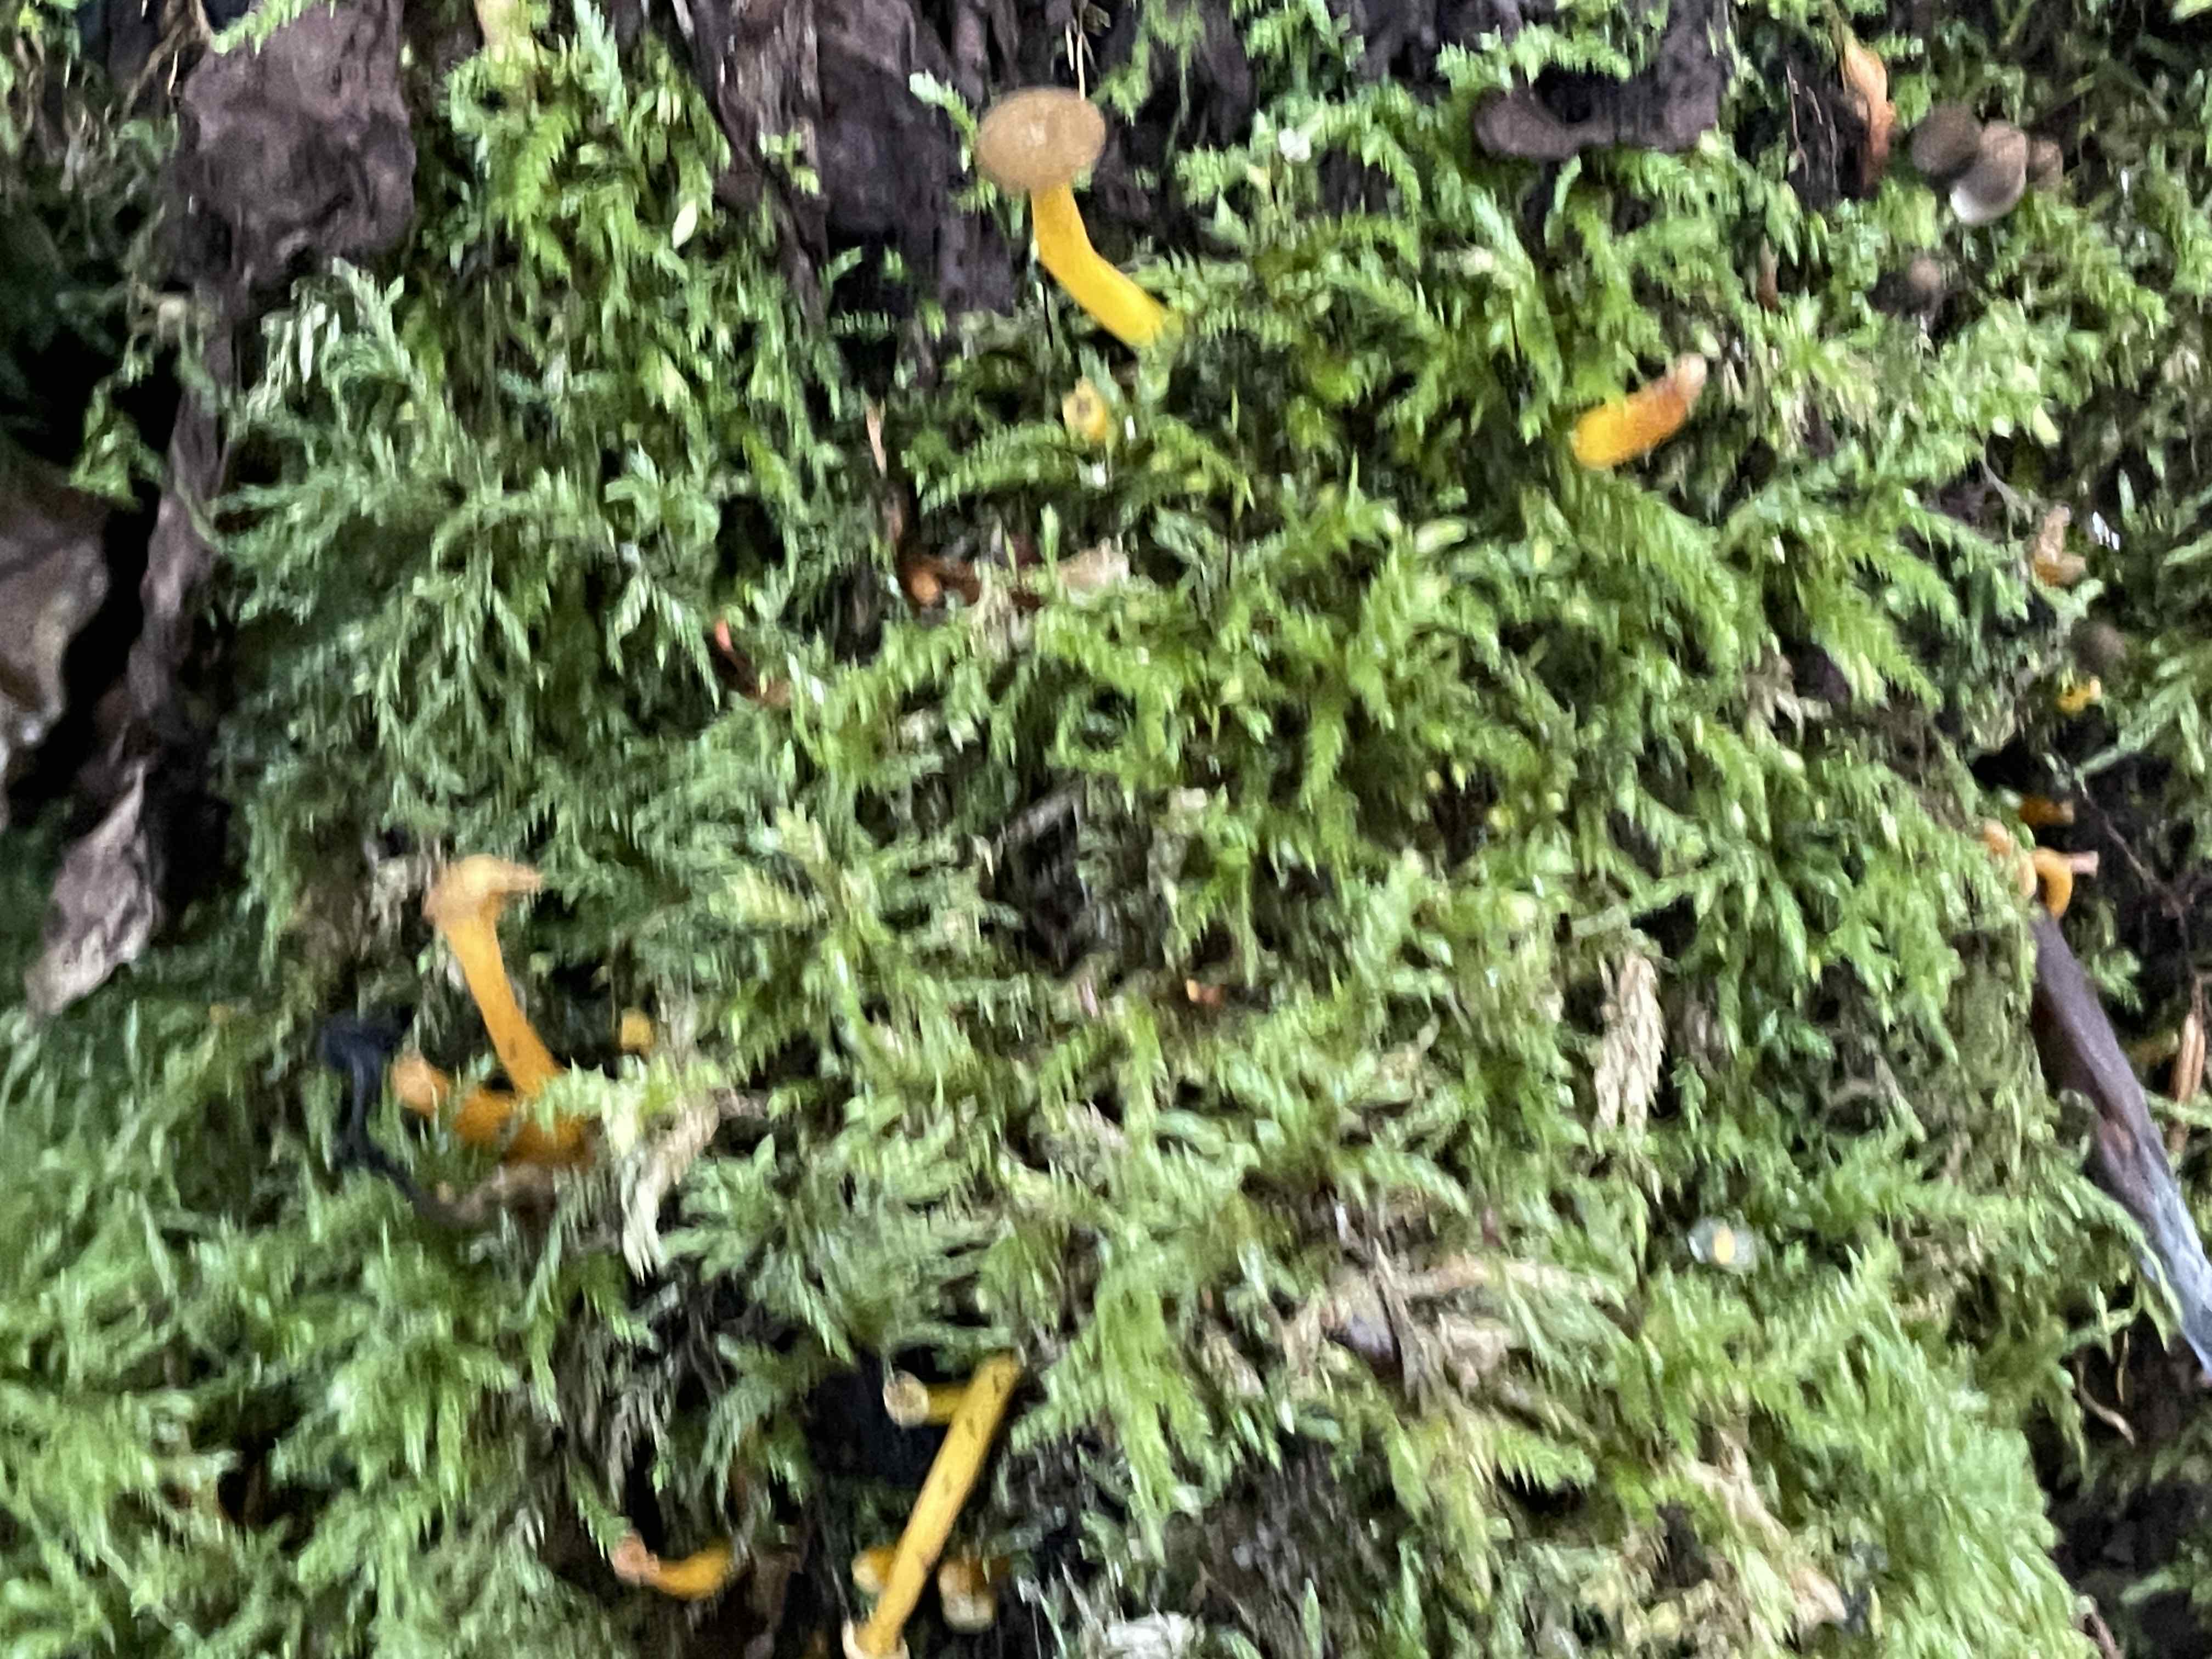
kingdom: Fungi
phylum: Basidiomycota
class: Agaricomycetes
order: Cantharellales
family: Hydnaceae
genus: Craterellus
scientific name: Craterellus tubaeformis
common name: tragt-kantarel
